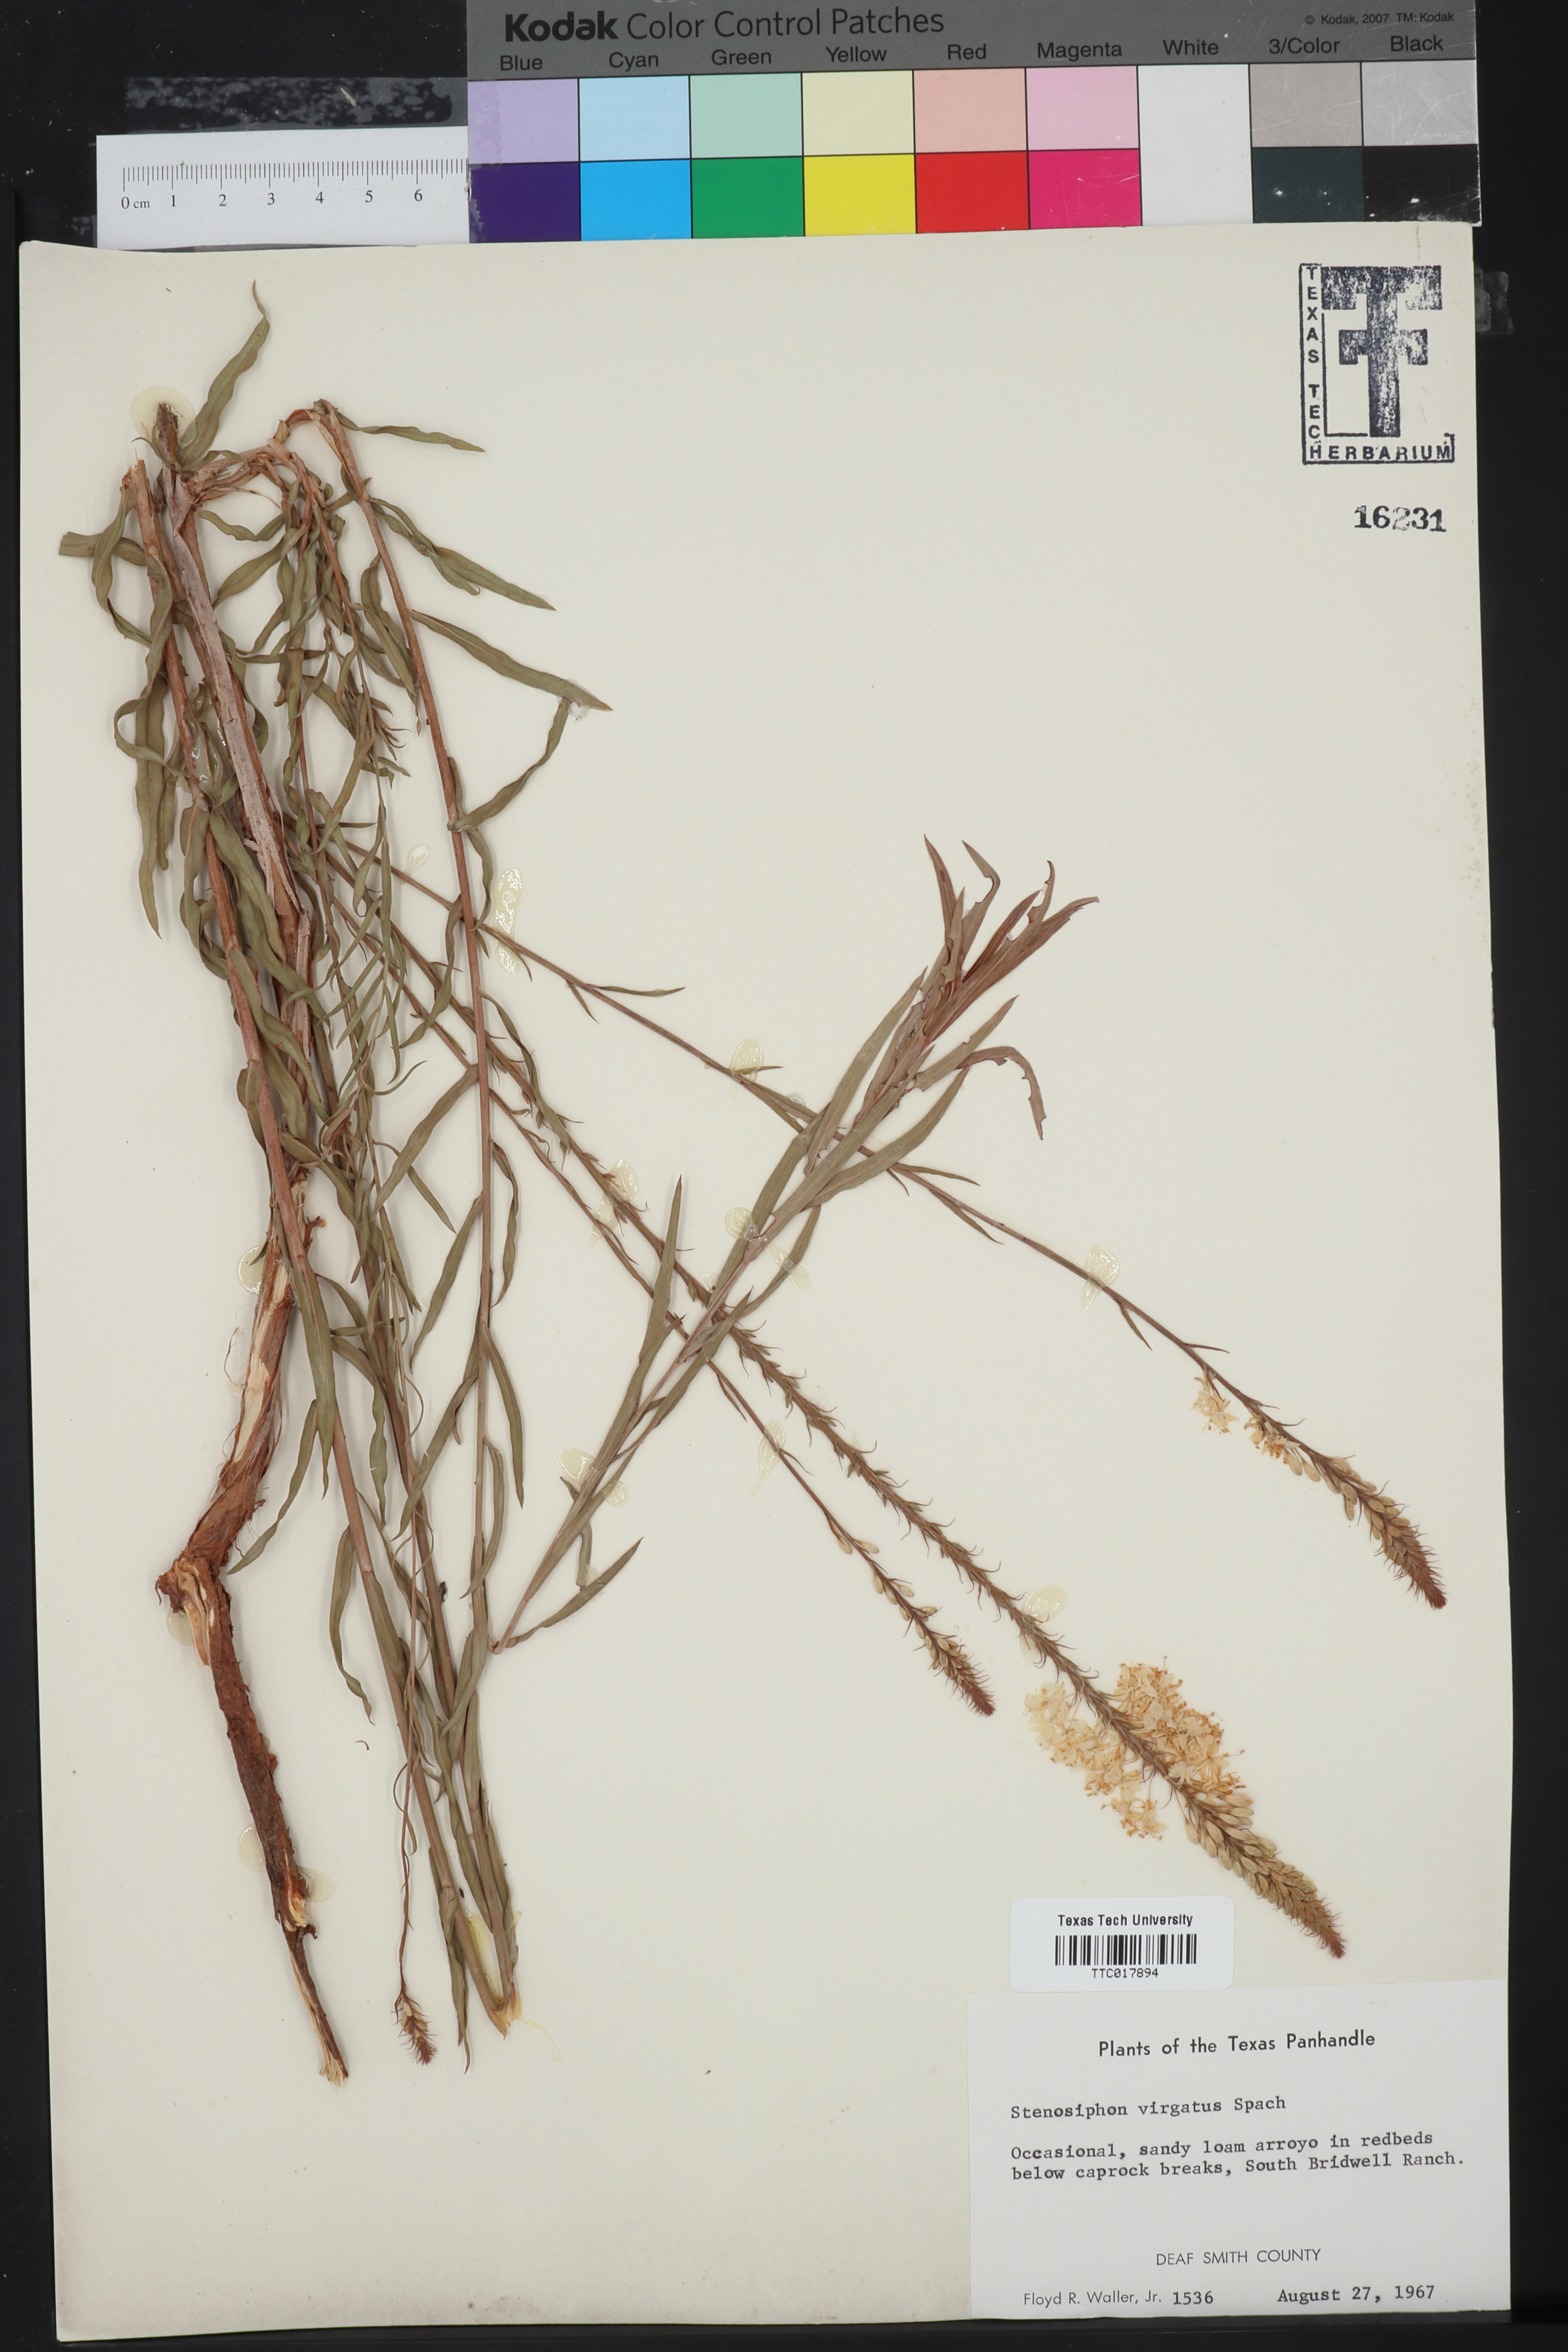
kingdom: Plantae
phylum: Tracheophyta
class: Magnoliopsida
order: Myrtales
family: Onagraceae
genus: Oenothera
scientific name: Oenothera glaucifolia
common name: False gaura
